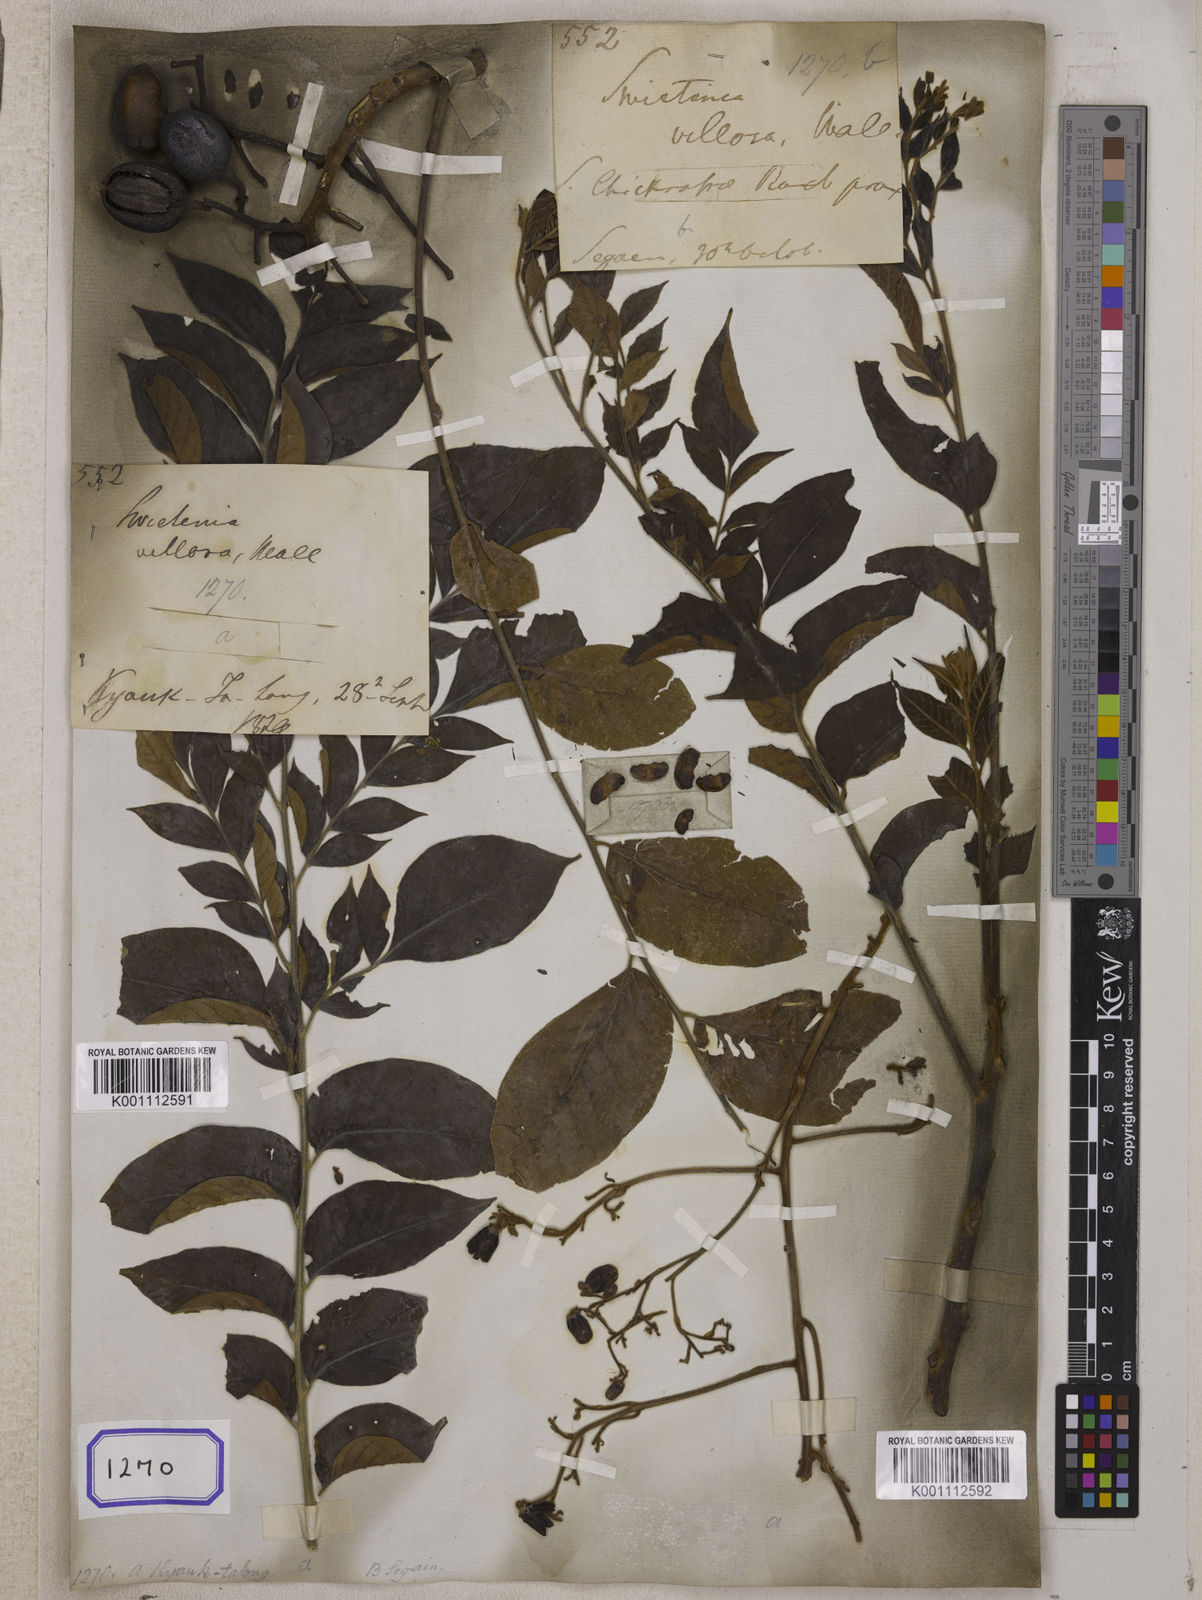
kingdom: Plantae
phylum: Tracheophyta
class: Magnoliopsida
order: Sapindales
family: Meliaceae
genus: Chukrasia
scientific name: Chukrasia tabularis
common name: Chittagong wood
